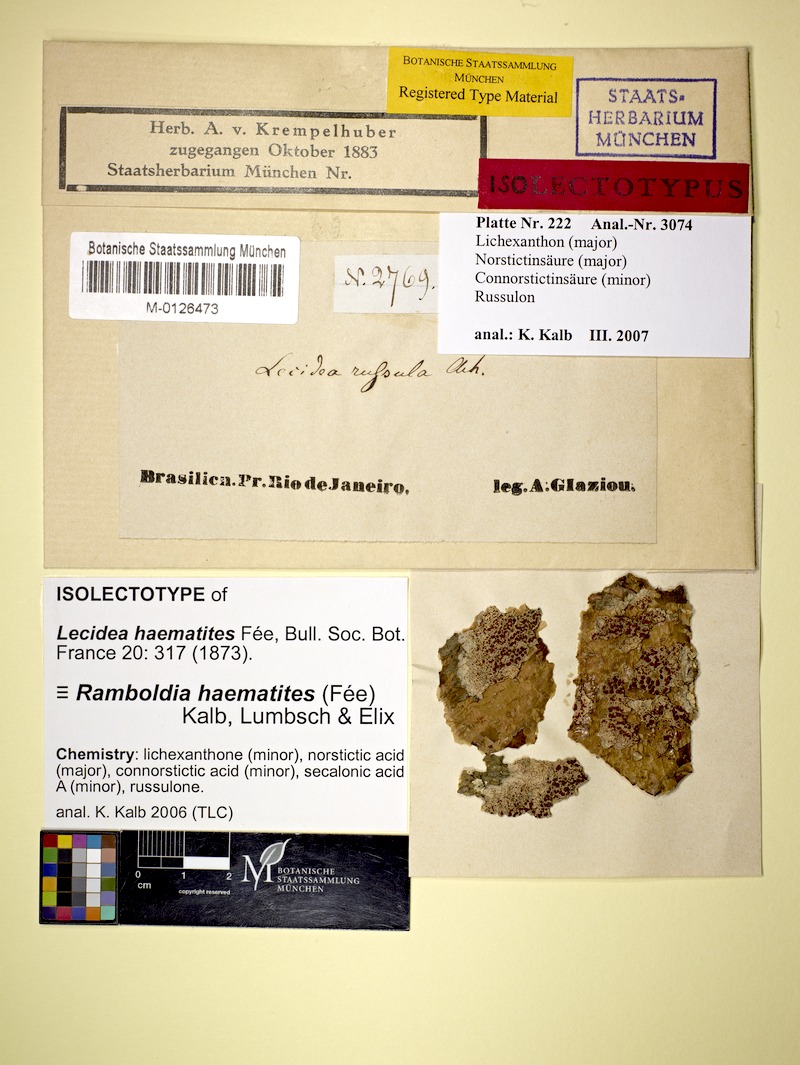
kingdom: Fungi
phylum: Ascomycota
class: Lecanoromycetes
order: Lecanorales
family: Ramboldiaceae
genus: Ramboldia
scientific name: Ramboldia haematites
